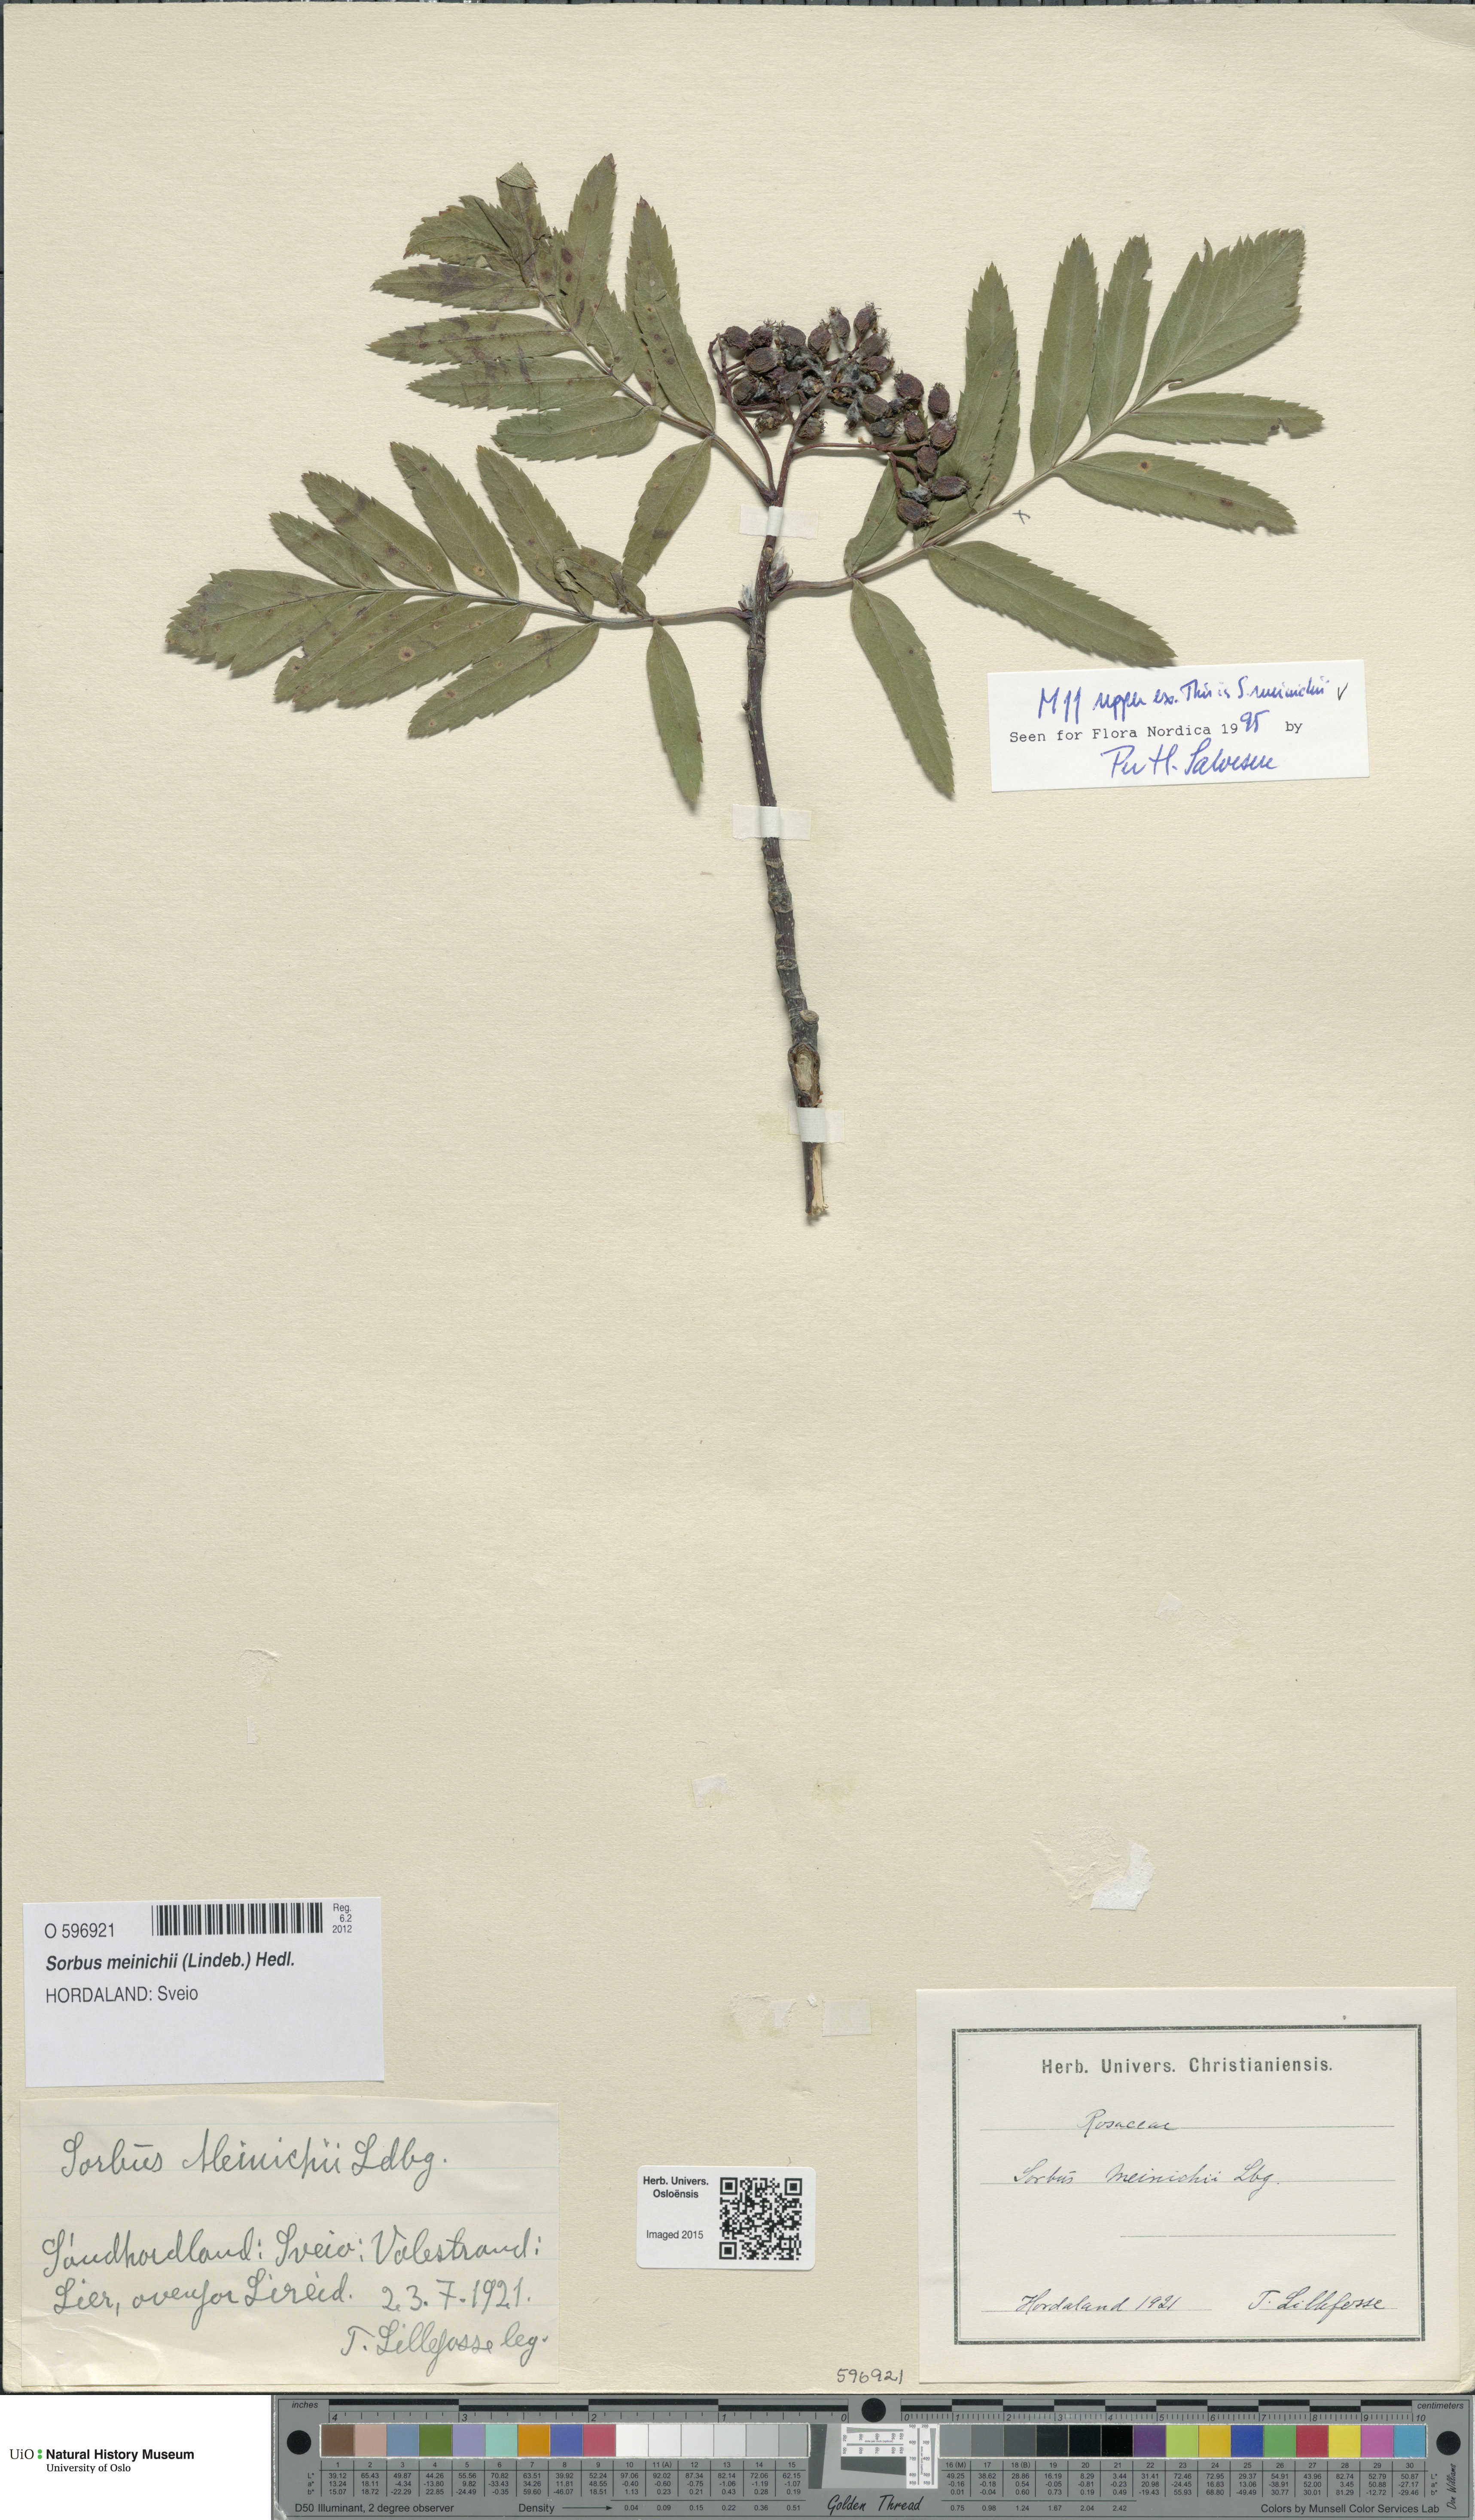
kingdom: Plantae
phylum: Tracheophyta
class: Magnoliopsida
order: Rosales
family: Rosaceae
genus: Hedlundia
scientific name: Hedlundia meinichii
